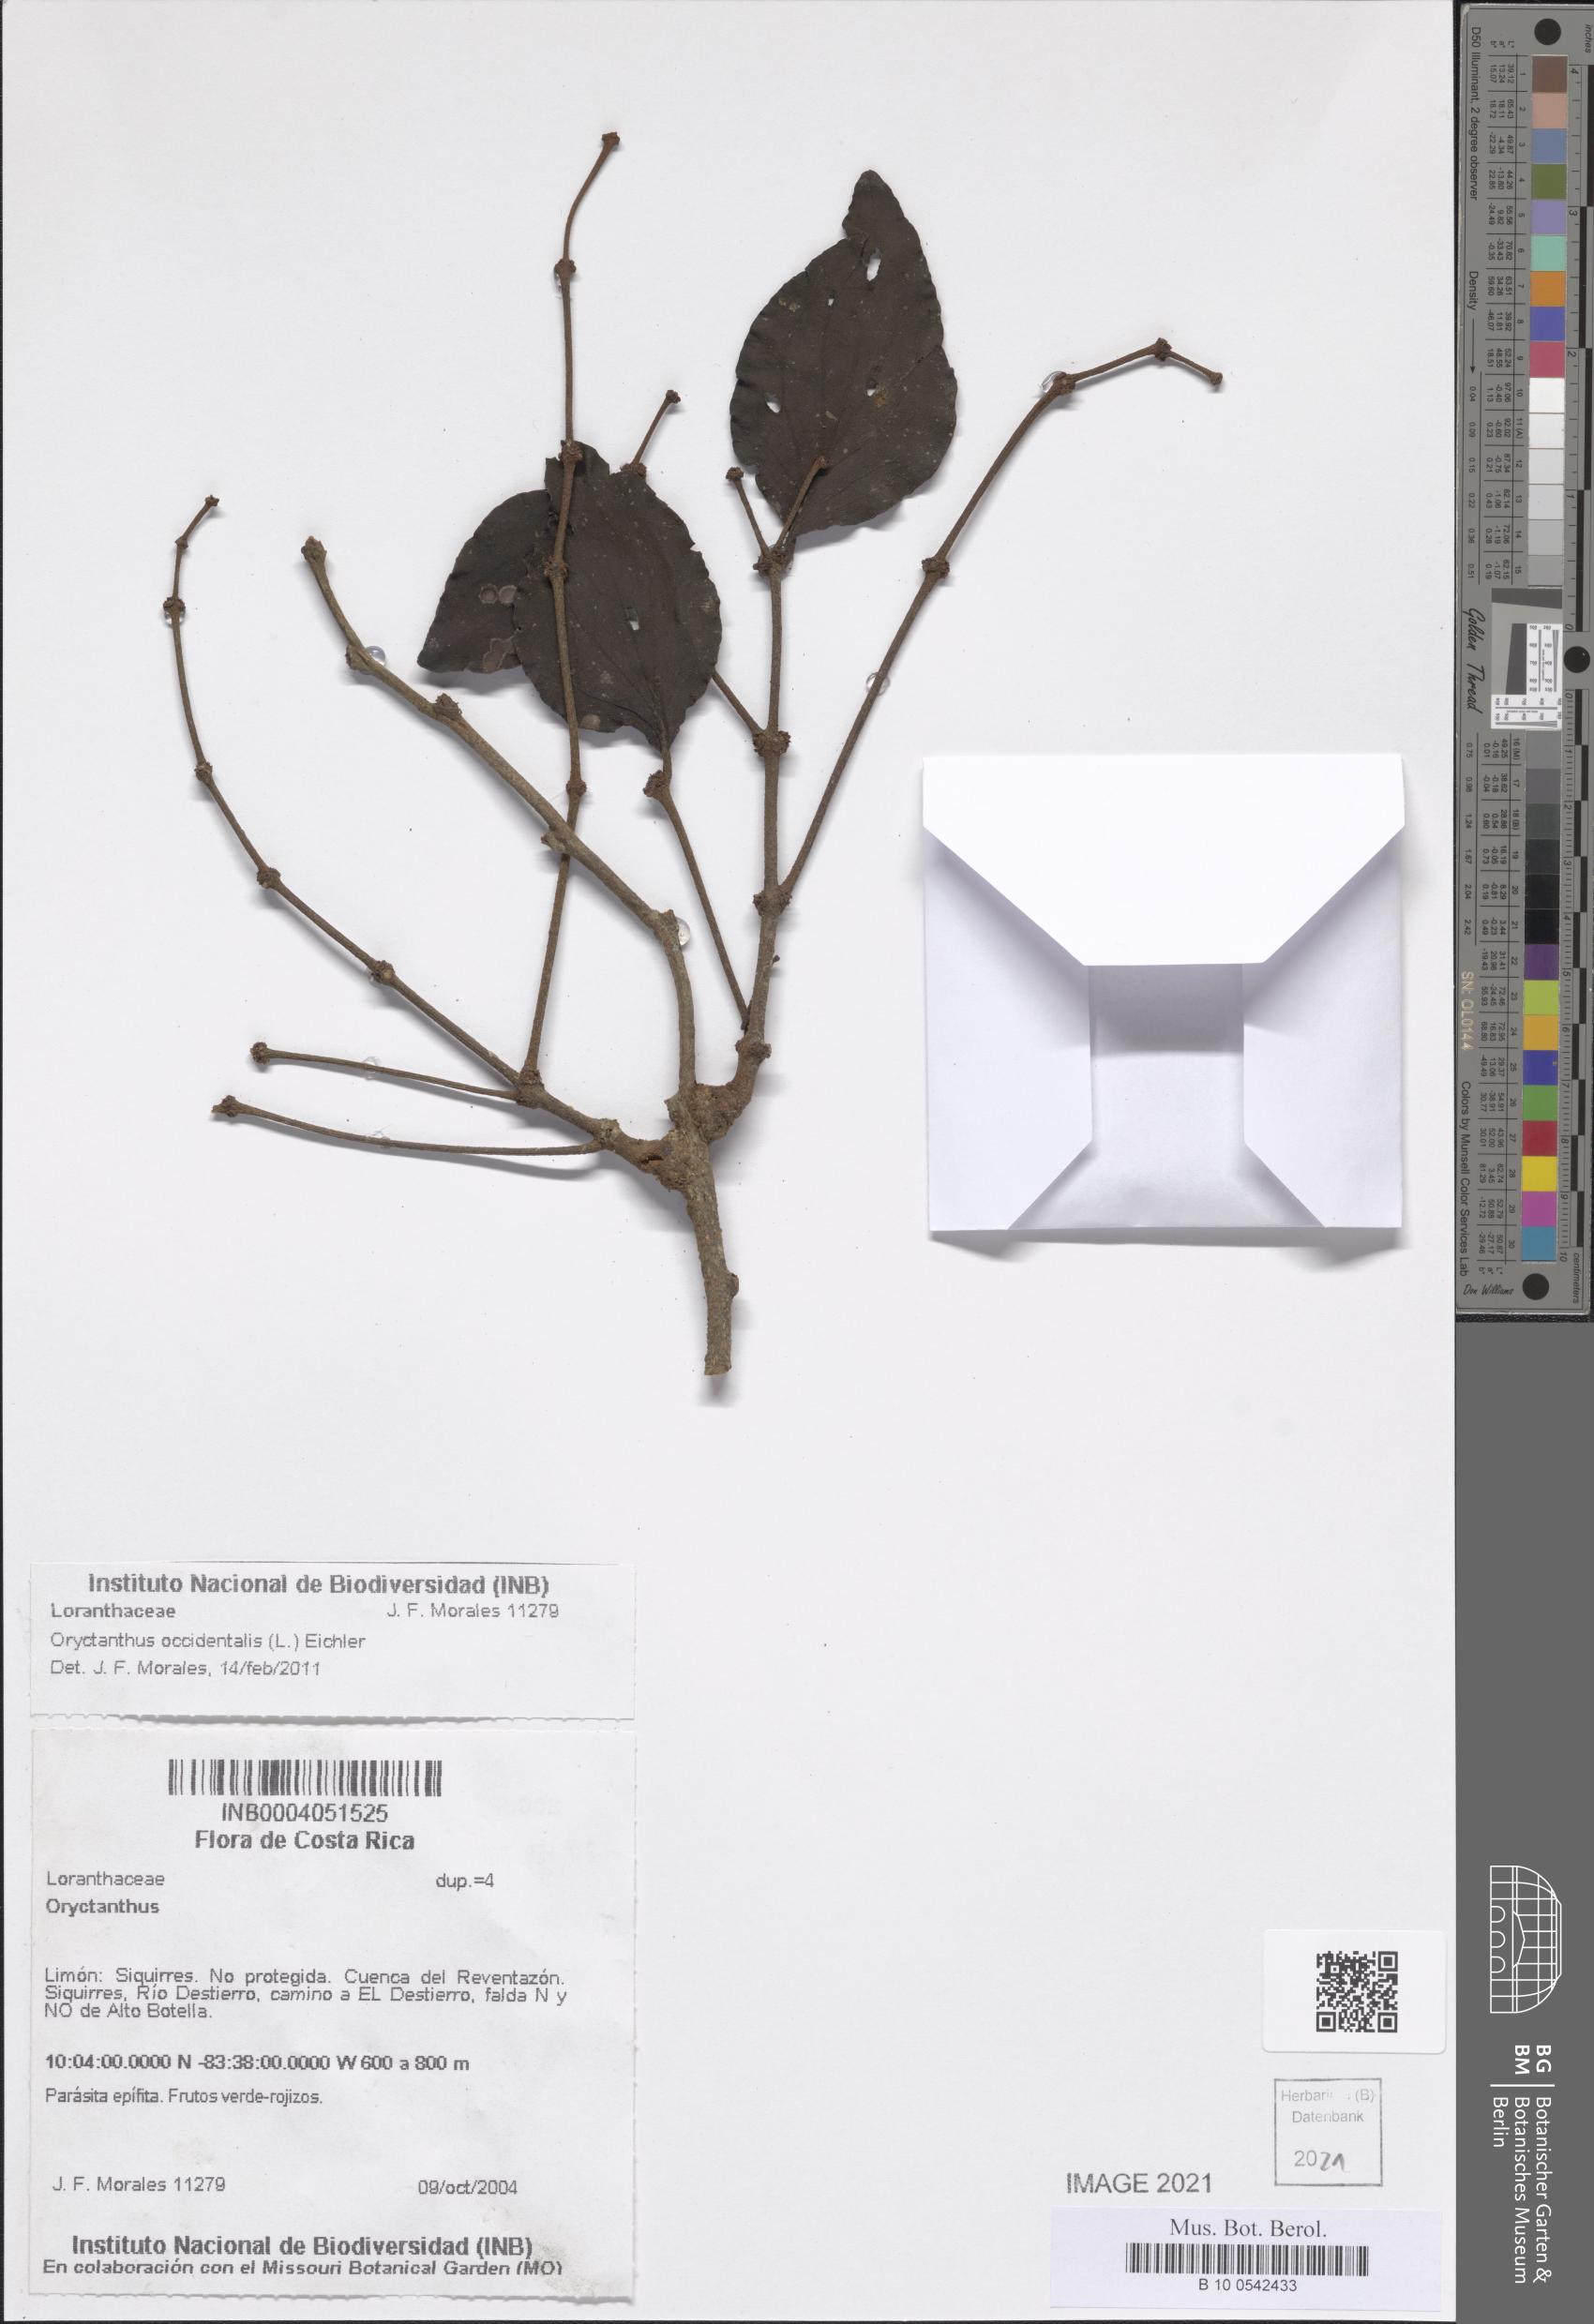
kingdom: Plantae
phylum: Tracheophyta
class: Magnoliopsida
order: Santalales
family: Loranthaceae
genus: Oryctanthus
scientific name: Oryctanthus occidentalis
